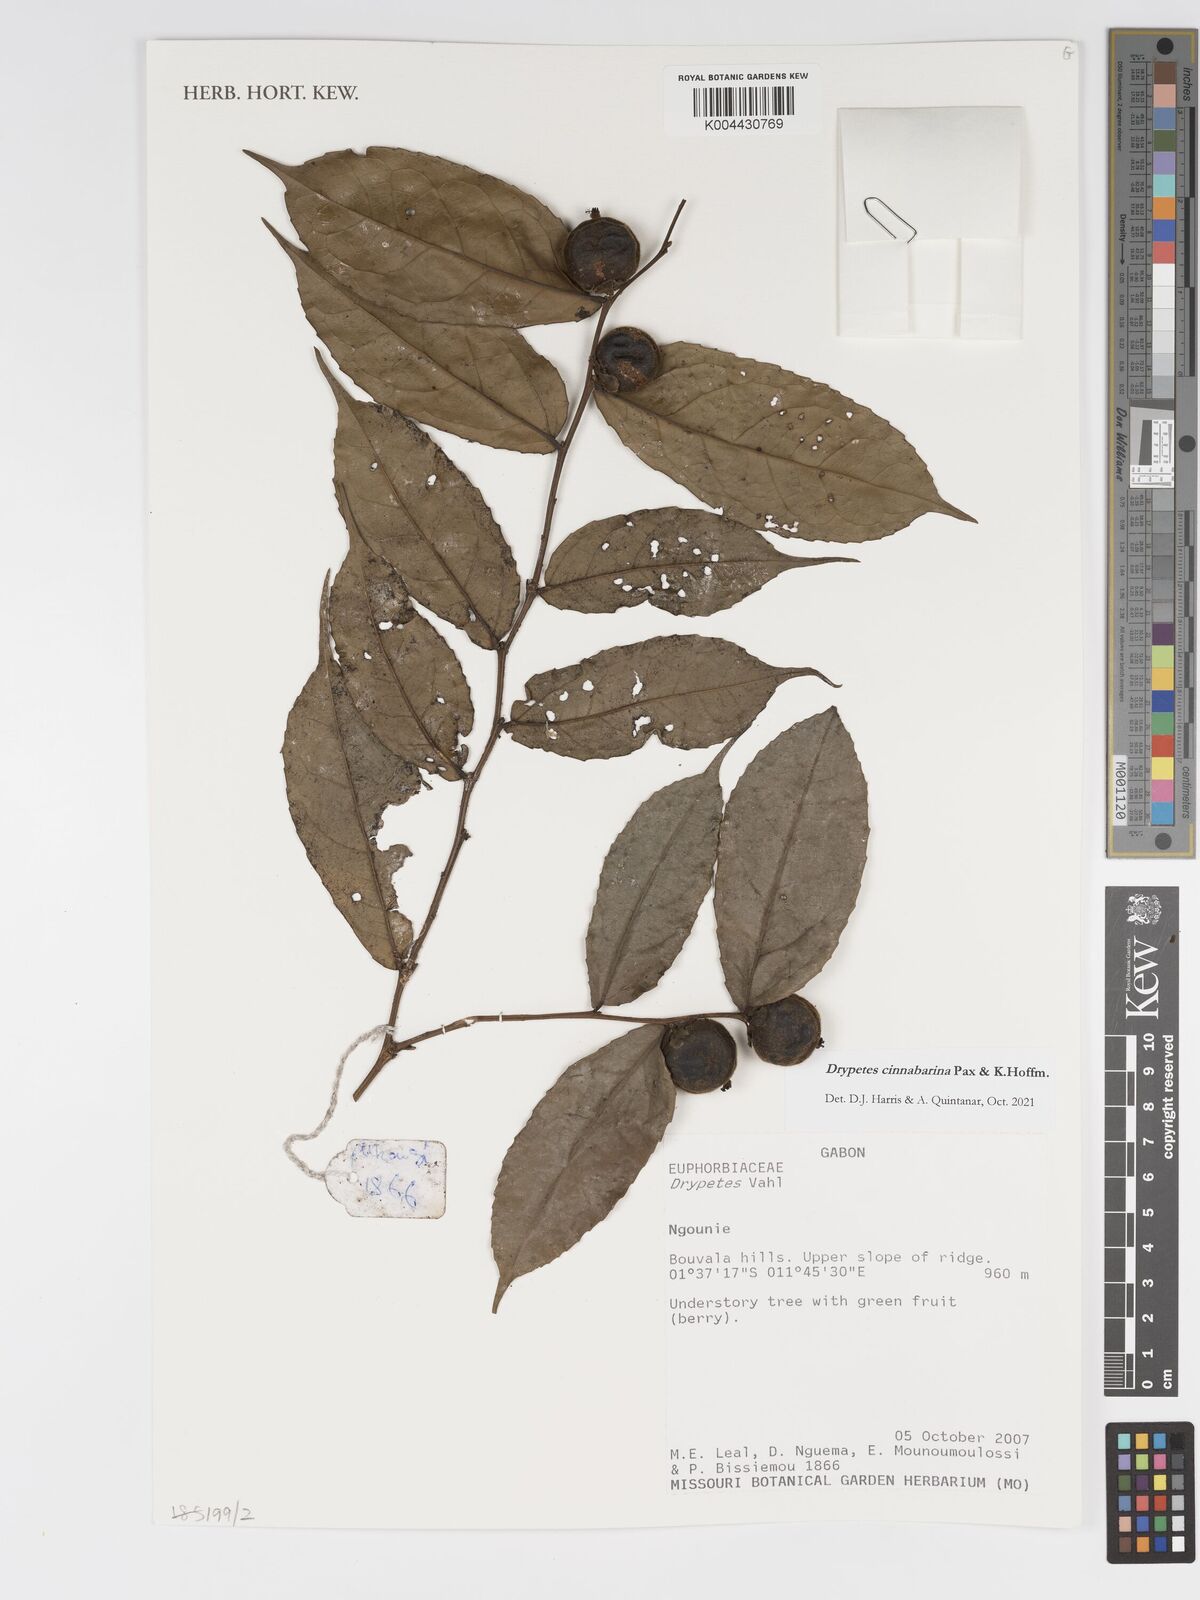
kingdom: Plantae
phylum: Tracheophyta
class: Magnoliopsida
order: Malpighiales
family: Putranjivaceae
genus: Drypetes
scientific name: Drypetes cinnabarina
